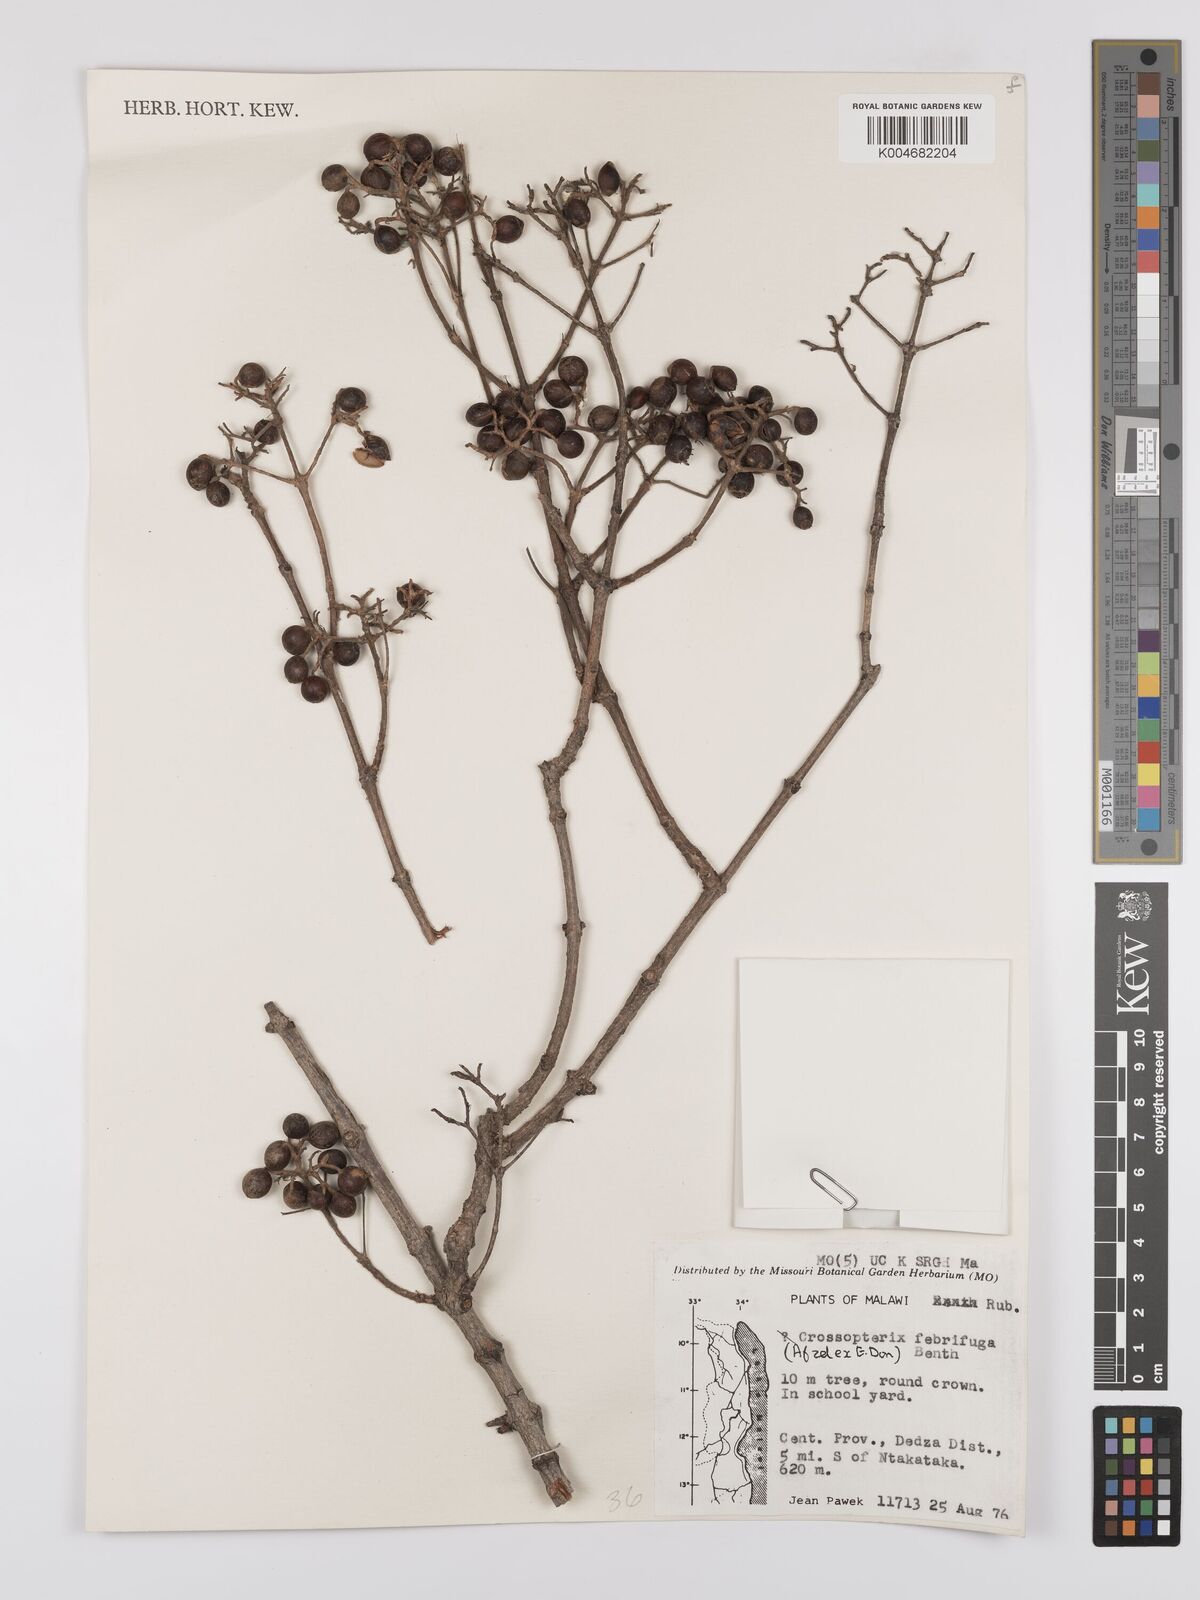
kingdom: Plantae
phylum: Tracheophyta
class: Magnoliopsida
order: Gentianales
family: Rubiaceae
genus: Crossopteryx
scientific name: Crossopteryx febrifuga
